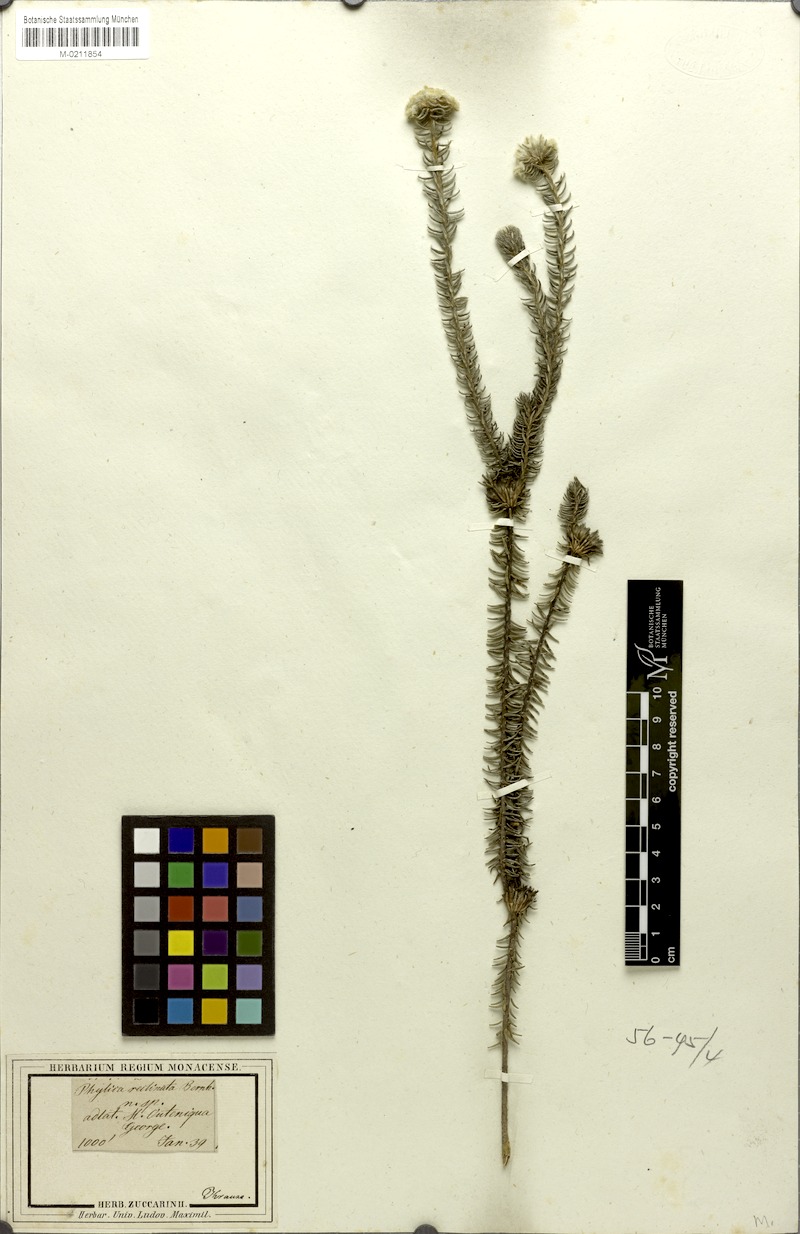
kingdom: Plantae
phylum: Tracheophyta
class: Magnoliopsida
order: Rosales
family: Rhamnaceae
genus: Phylica
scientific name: Phylica curvifolia
